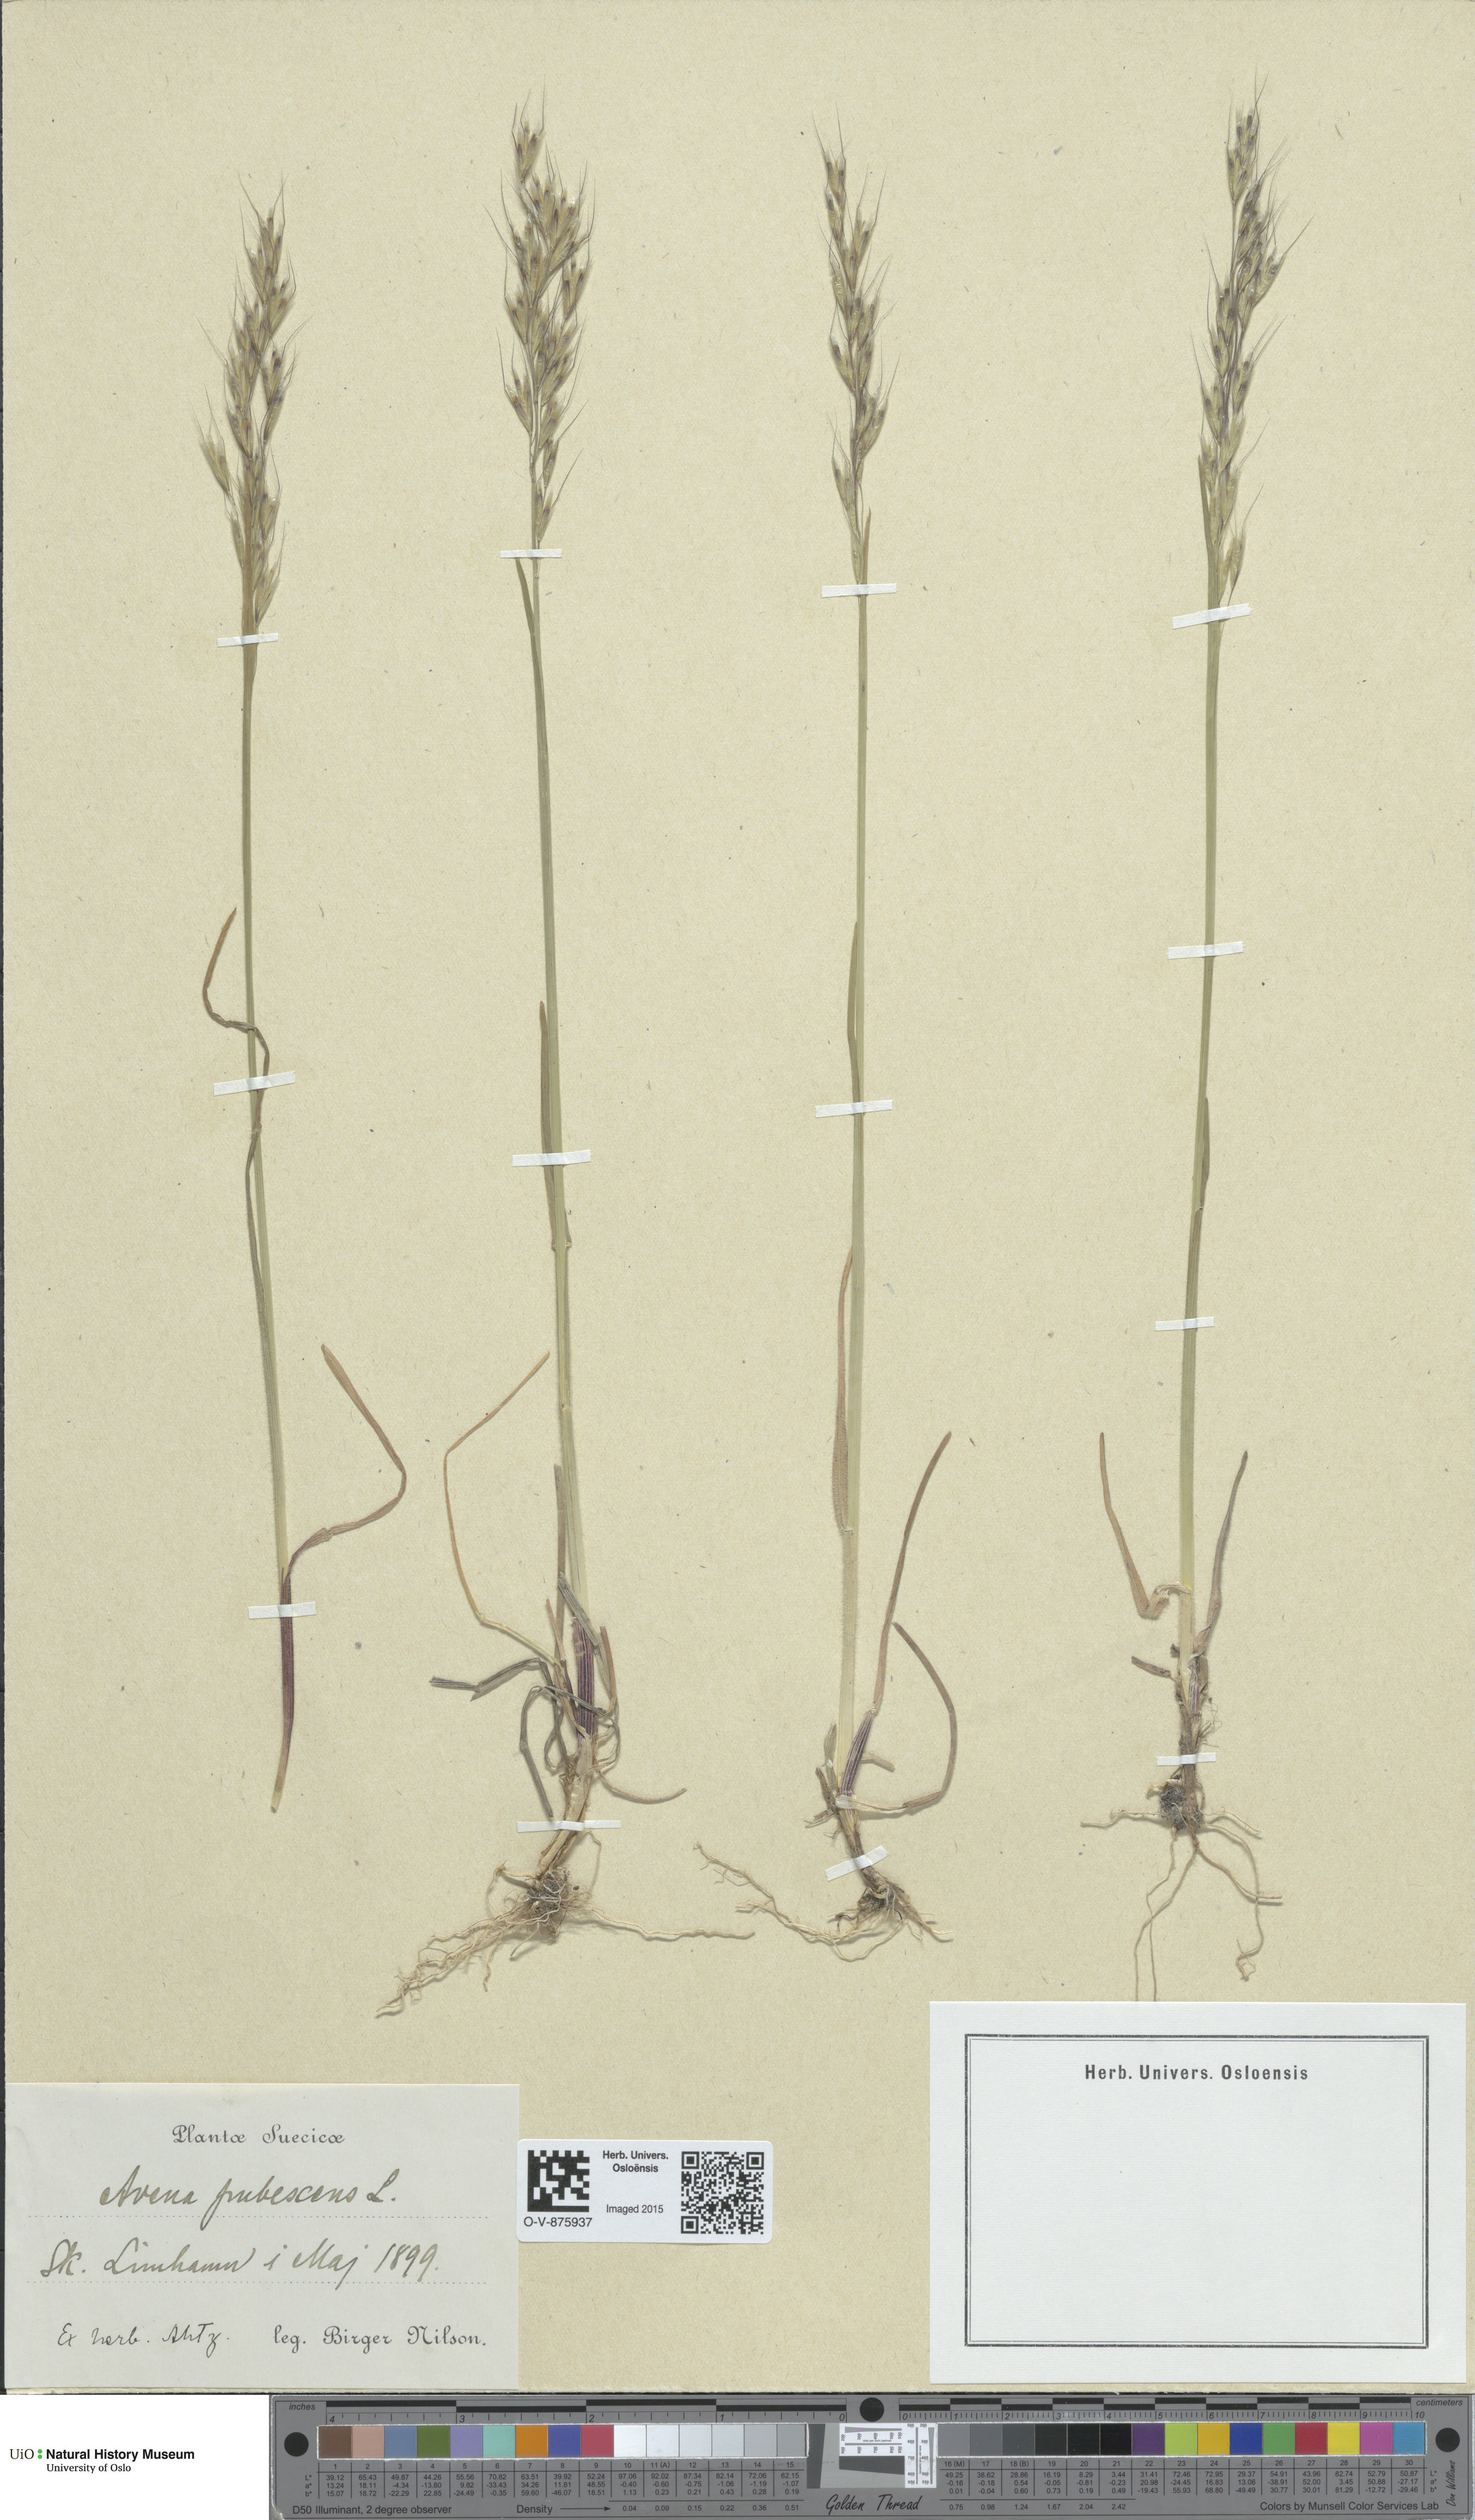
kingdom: Plantae
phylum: Tracheophyta
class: Liliopsida
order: Poales
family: Poaceae
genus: Avenula
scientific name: Avenula pubescens
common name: Downy alpine oatgrass
